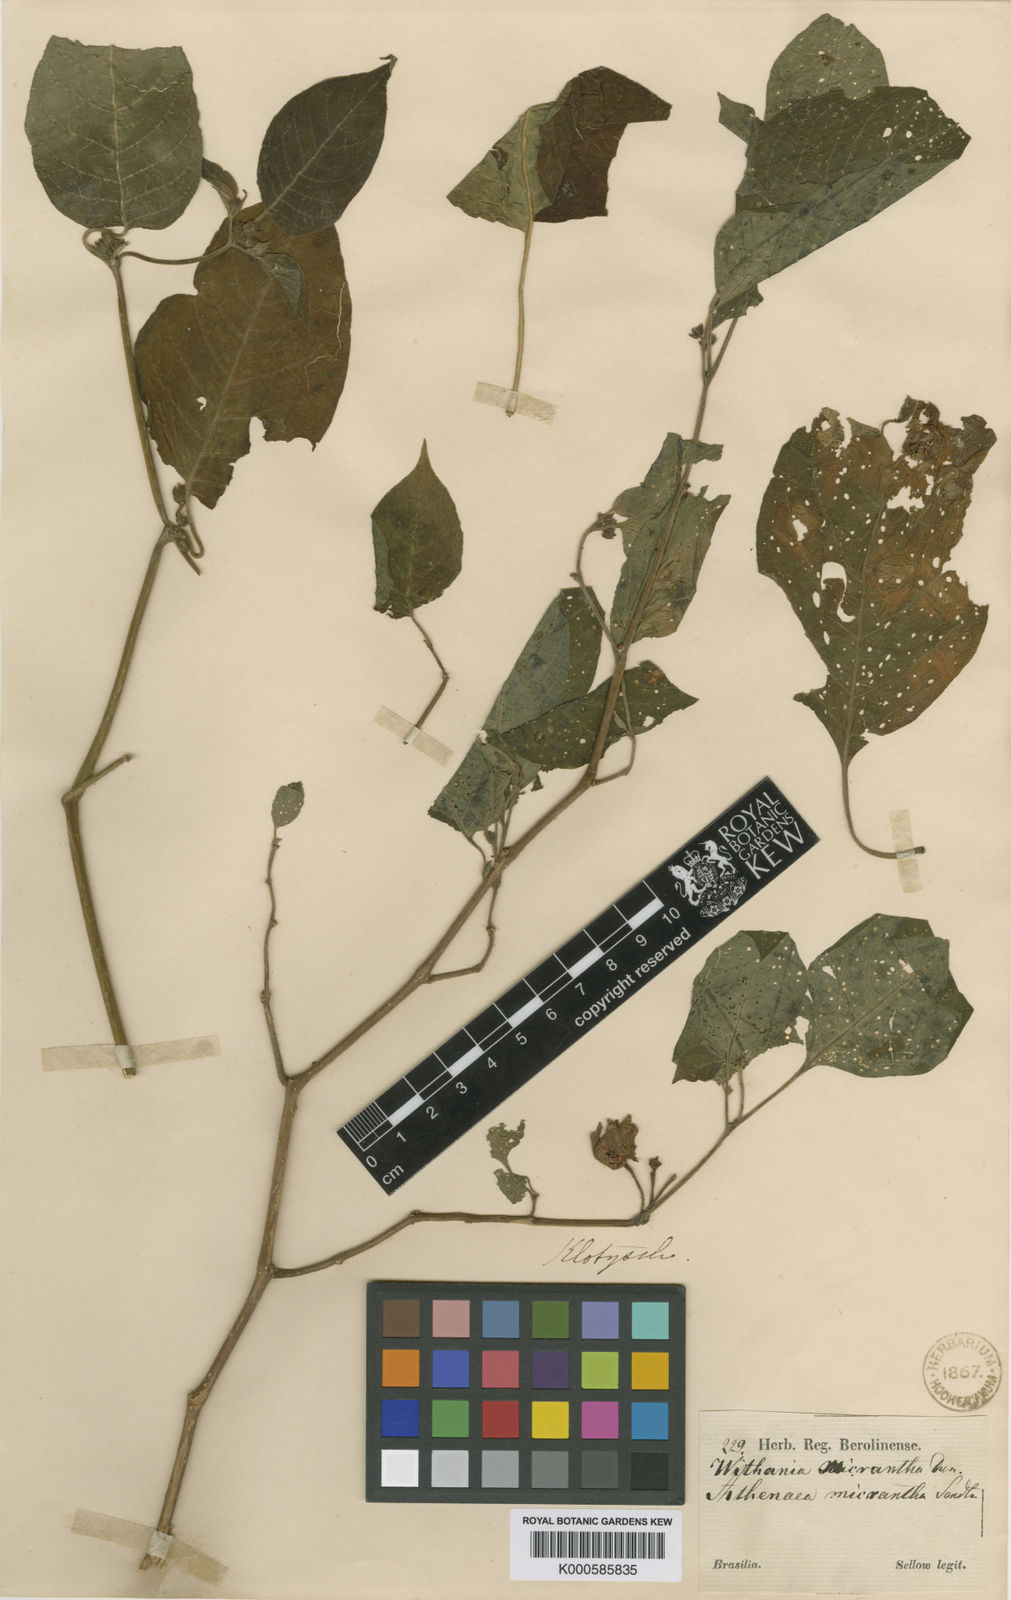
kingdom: Plantae
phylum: Tracheophyta
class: Magnoliopsida
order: Solanales
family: Solanaceae
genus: Athenaea
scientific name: Athenaea pogogena
